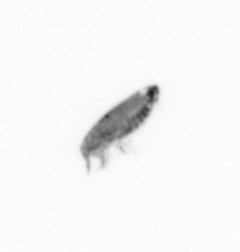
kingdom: Animalia
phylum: Arthropoda
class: Copepoda
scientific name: Copepoda
